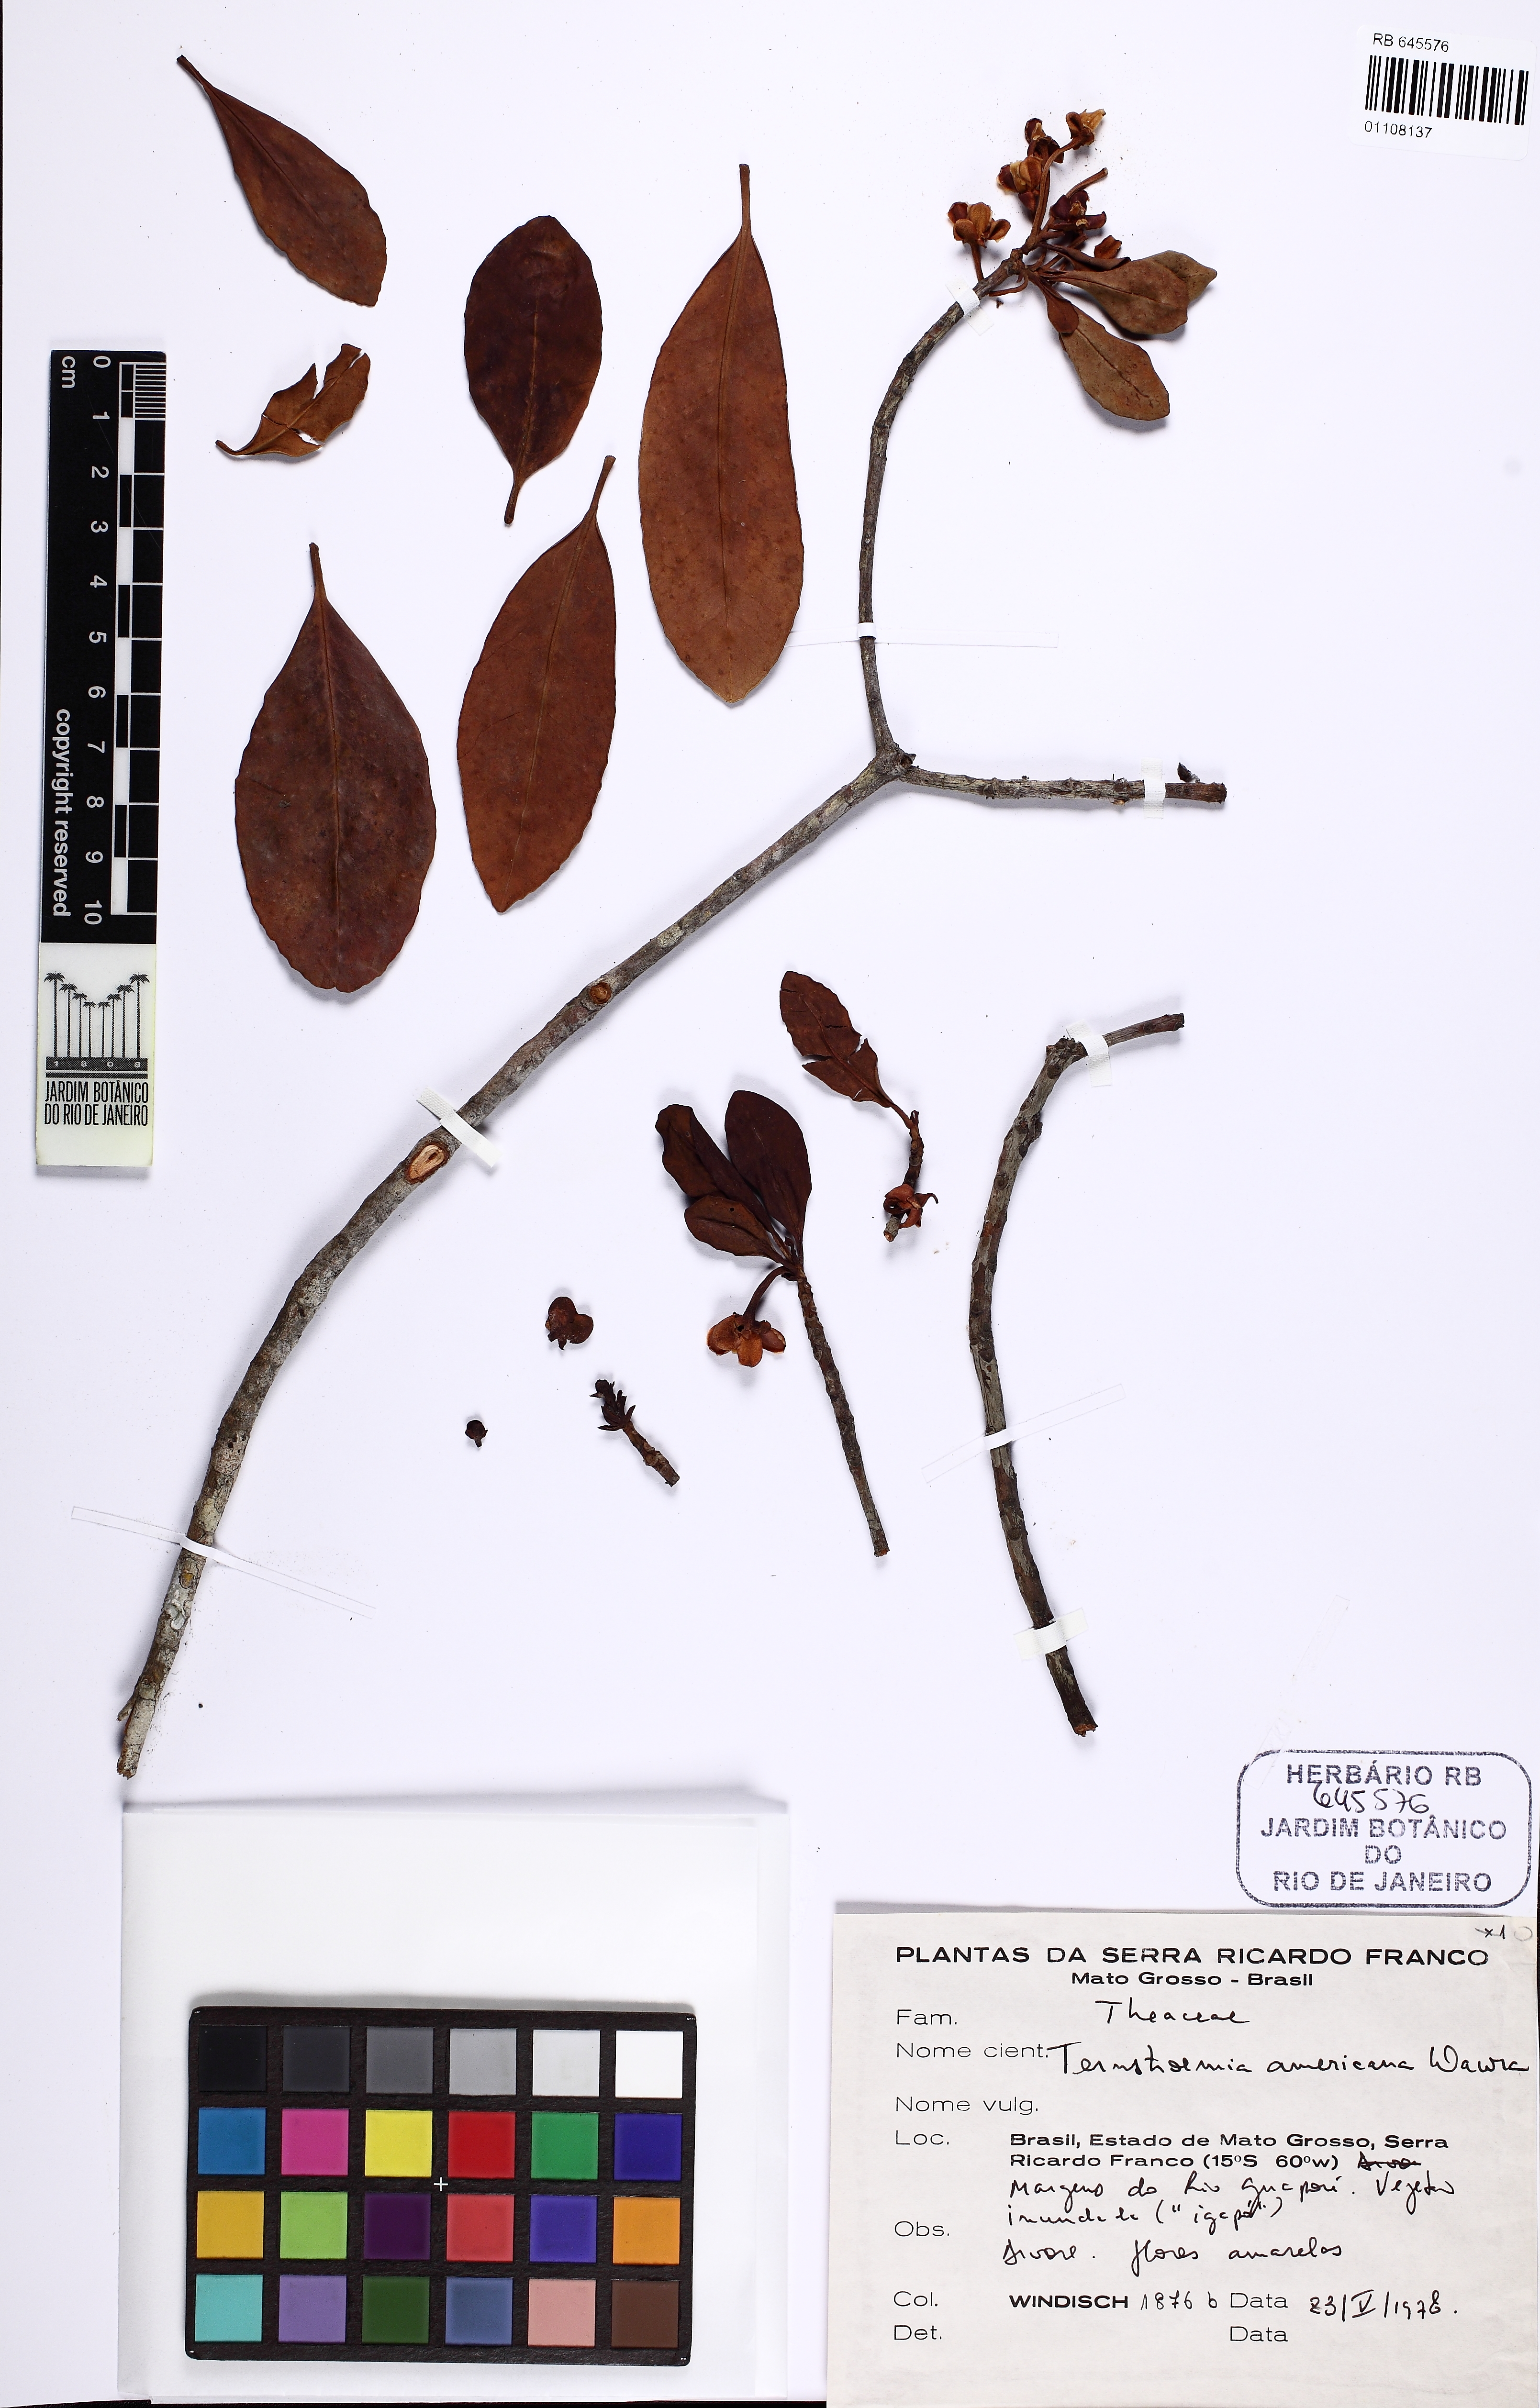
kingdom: Plantae
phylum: Tracheophyta
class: Magnoliopsida
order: Ericales
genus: Ternstroemia
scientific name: Ternstroemia
